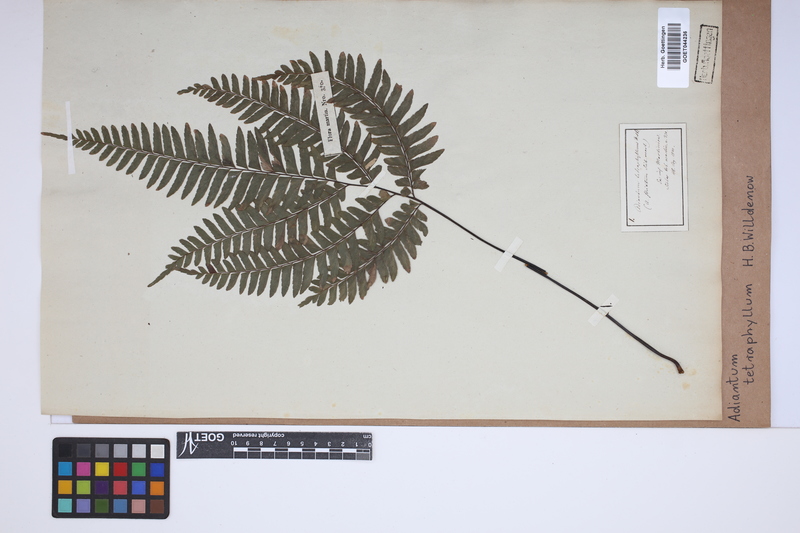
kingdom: Plantae
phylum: Tracheophyta
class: Polypodiopsida
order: Polypodiales
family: Pteridaceae
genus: Adiantum
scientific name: Adiantum tetraphyllum
